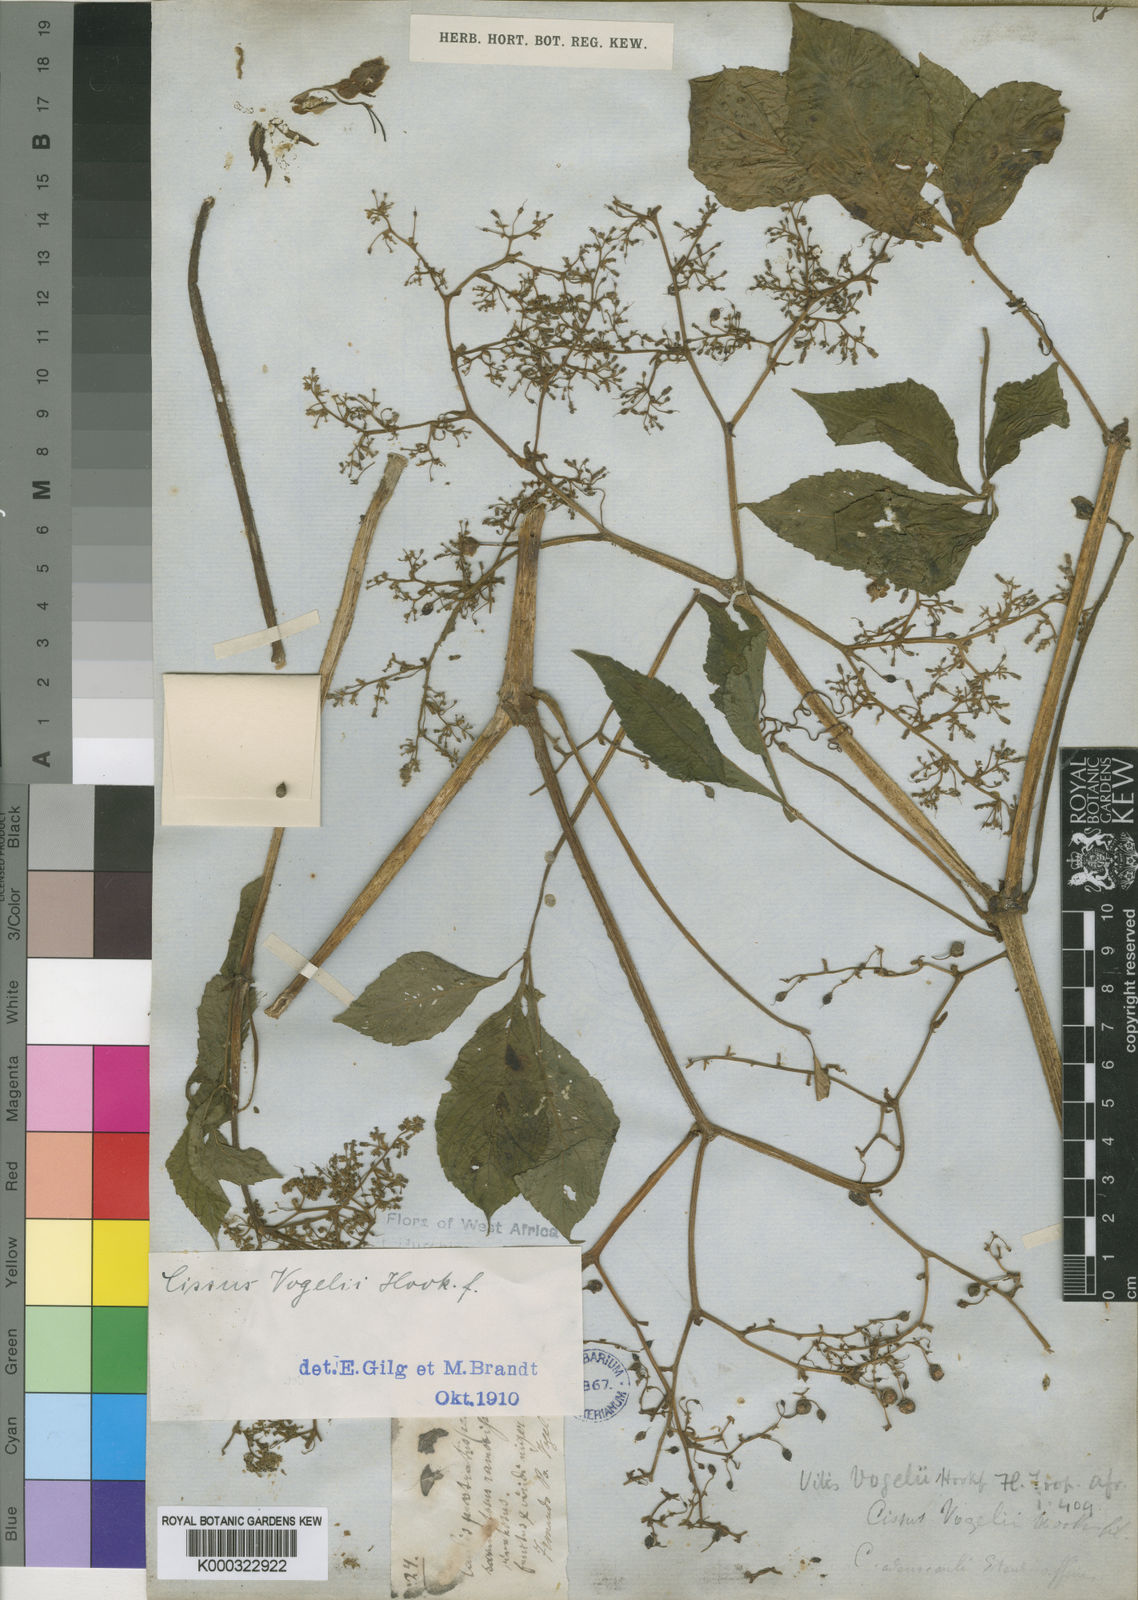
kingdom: Plantae
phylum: Tracheophyta
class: Magnoliopsida
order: Vitales
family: Vitaceae
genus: Cyphostemma
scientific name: Cyphostemma vogelii
